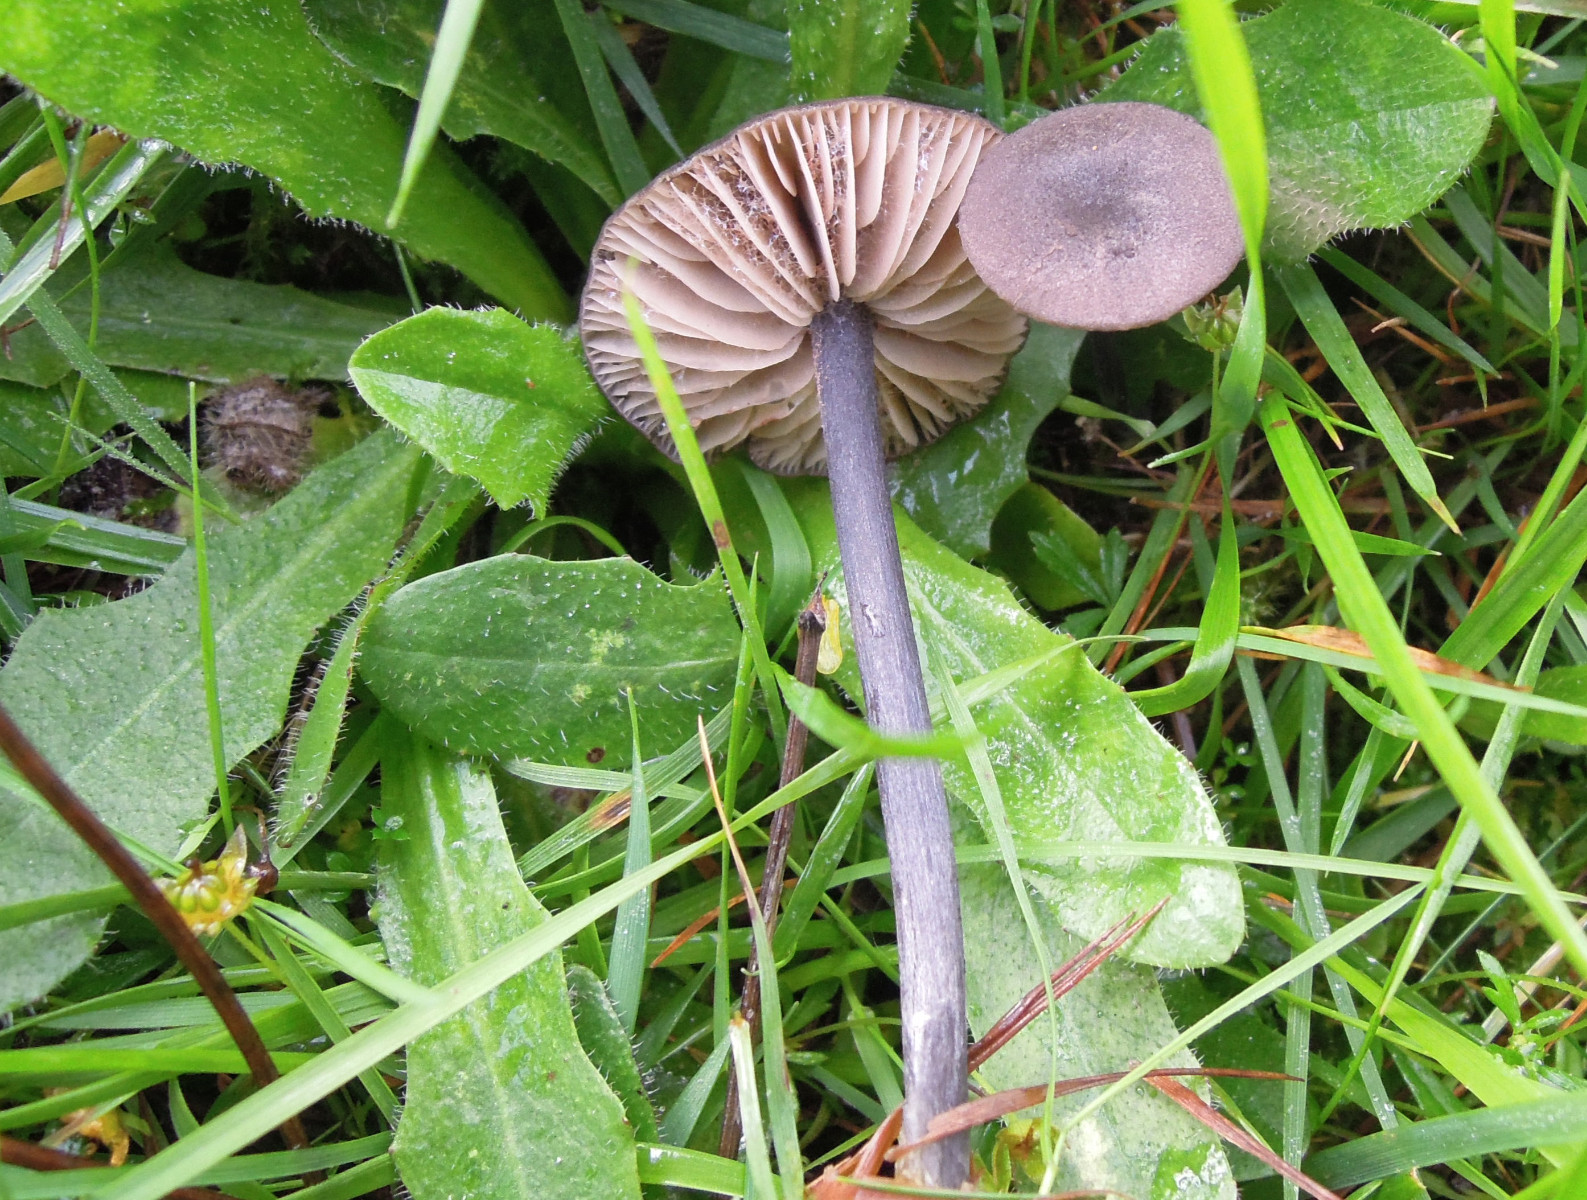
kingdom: Fungi
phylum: Basidiomycota
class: Agaricomycetes
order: Agaricales
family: Entolomataceae
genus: Entoloma
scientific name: Entoloma viiduense
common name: purpurbrun rødblad
